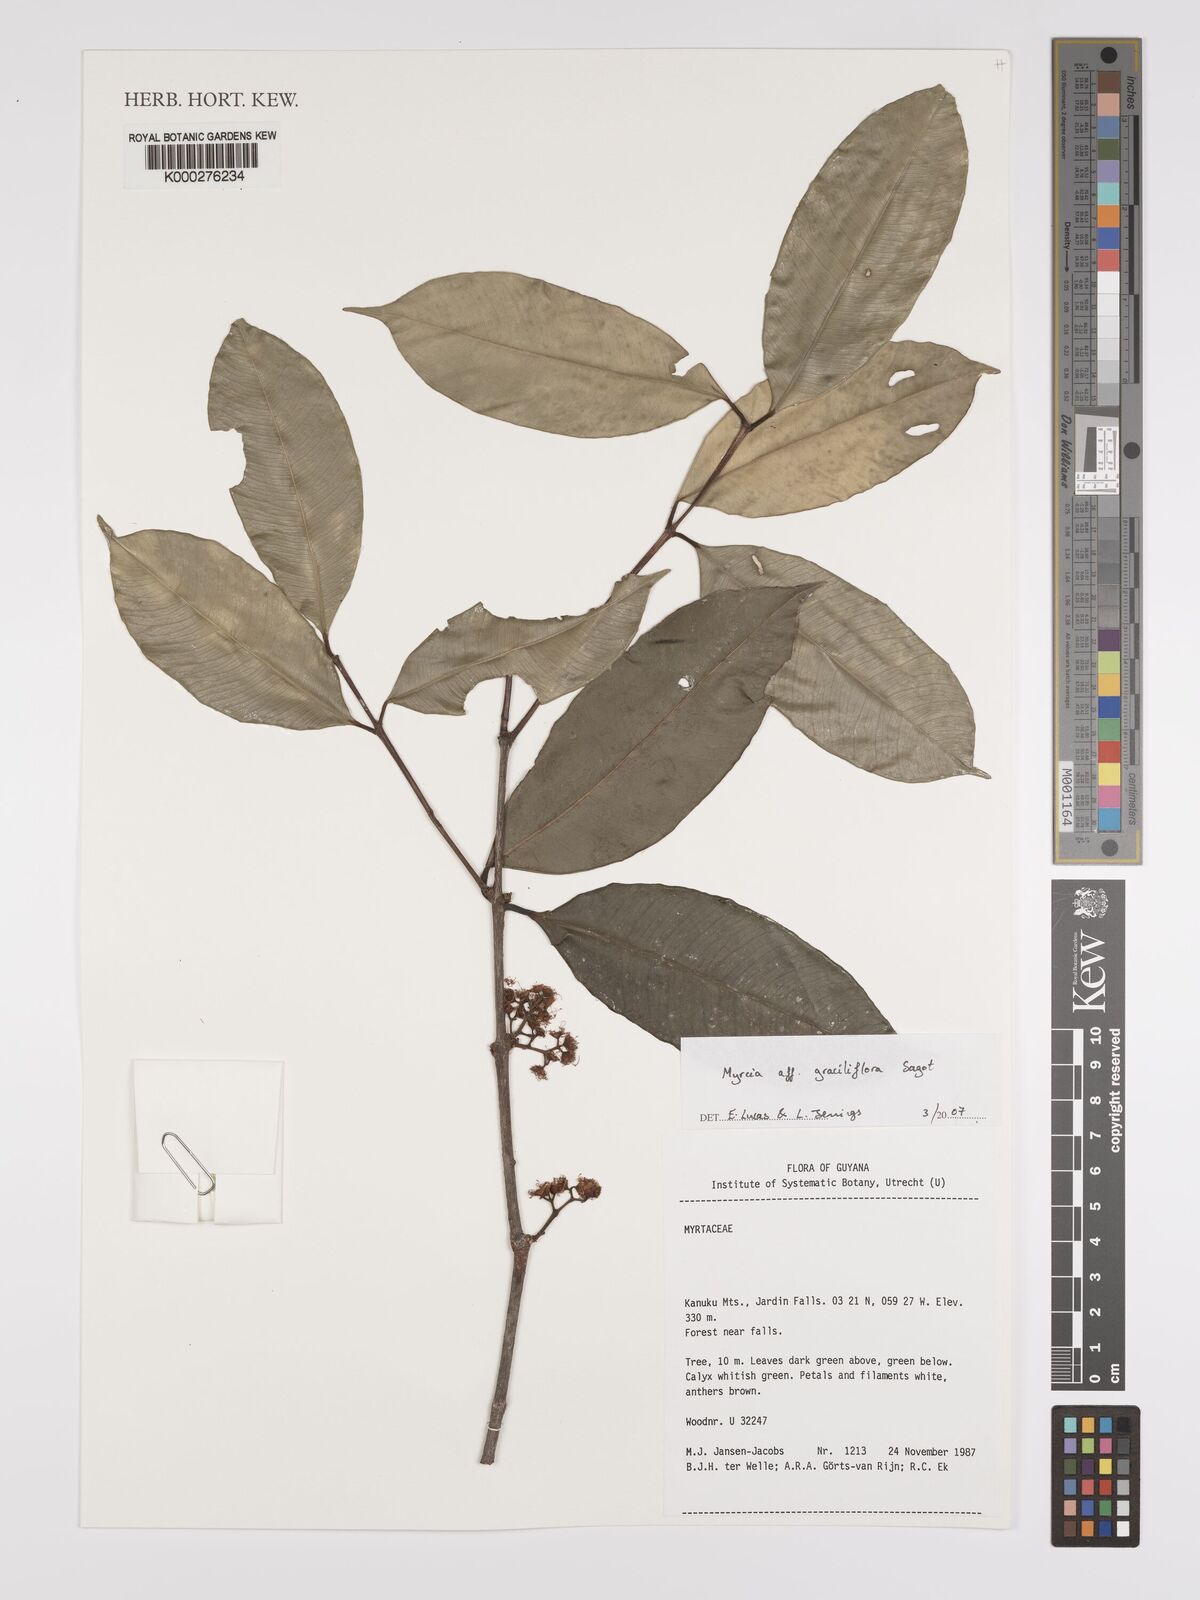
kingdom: Plantae
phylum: Tracheophyta
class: Magnoliopsida
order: Myrtales
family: Myrtaceae
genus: Myrcia
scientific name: Myrcia graciliflora
